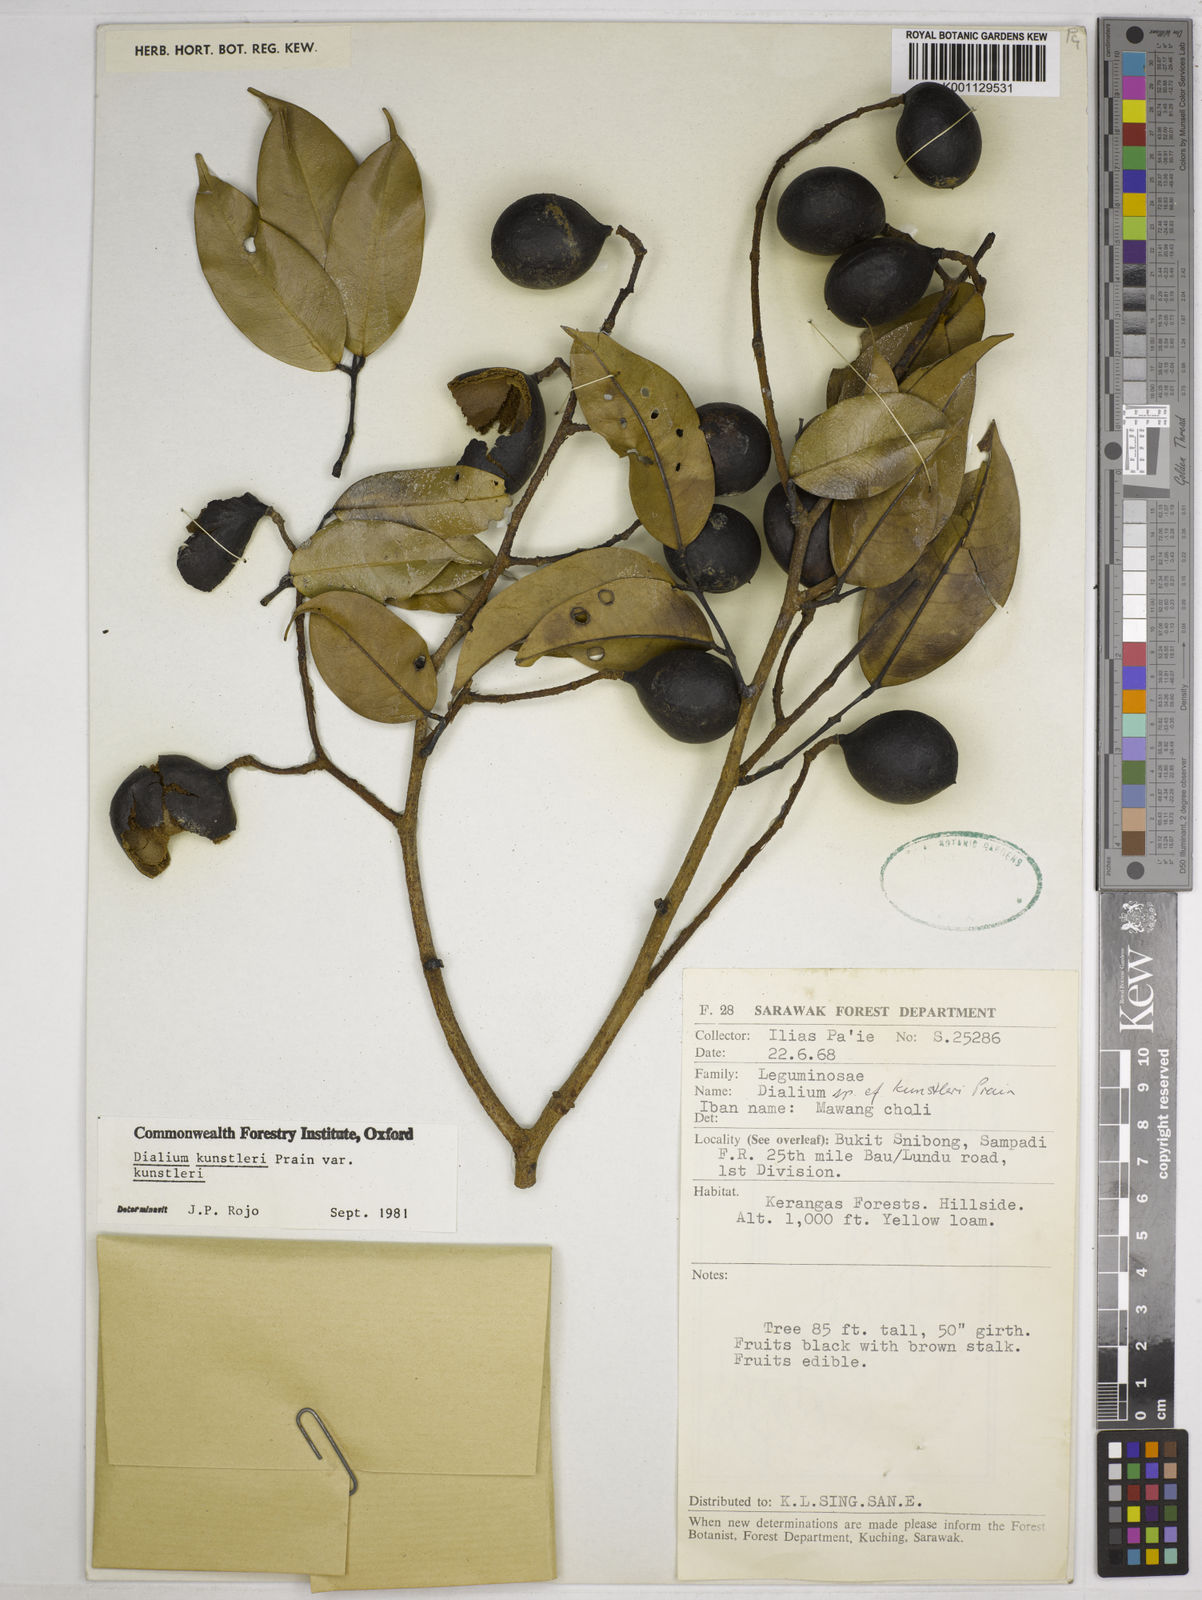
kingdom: Plantae
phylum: Tracheophyta
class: Magnoliopsida
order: Fabales
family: Fabaceae
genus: Dialium
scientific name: Dialium kunstleri
